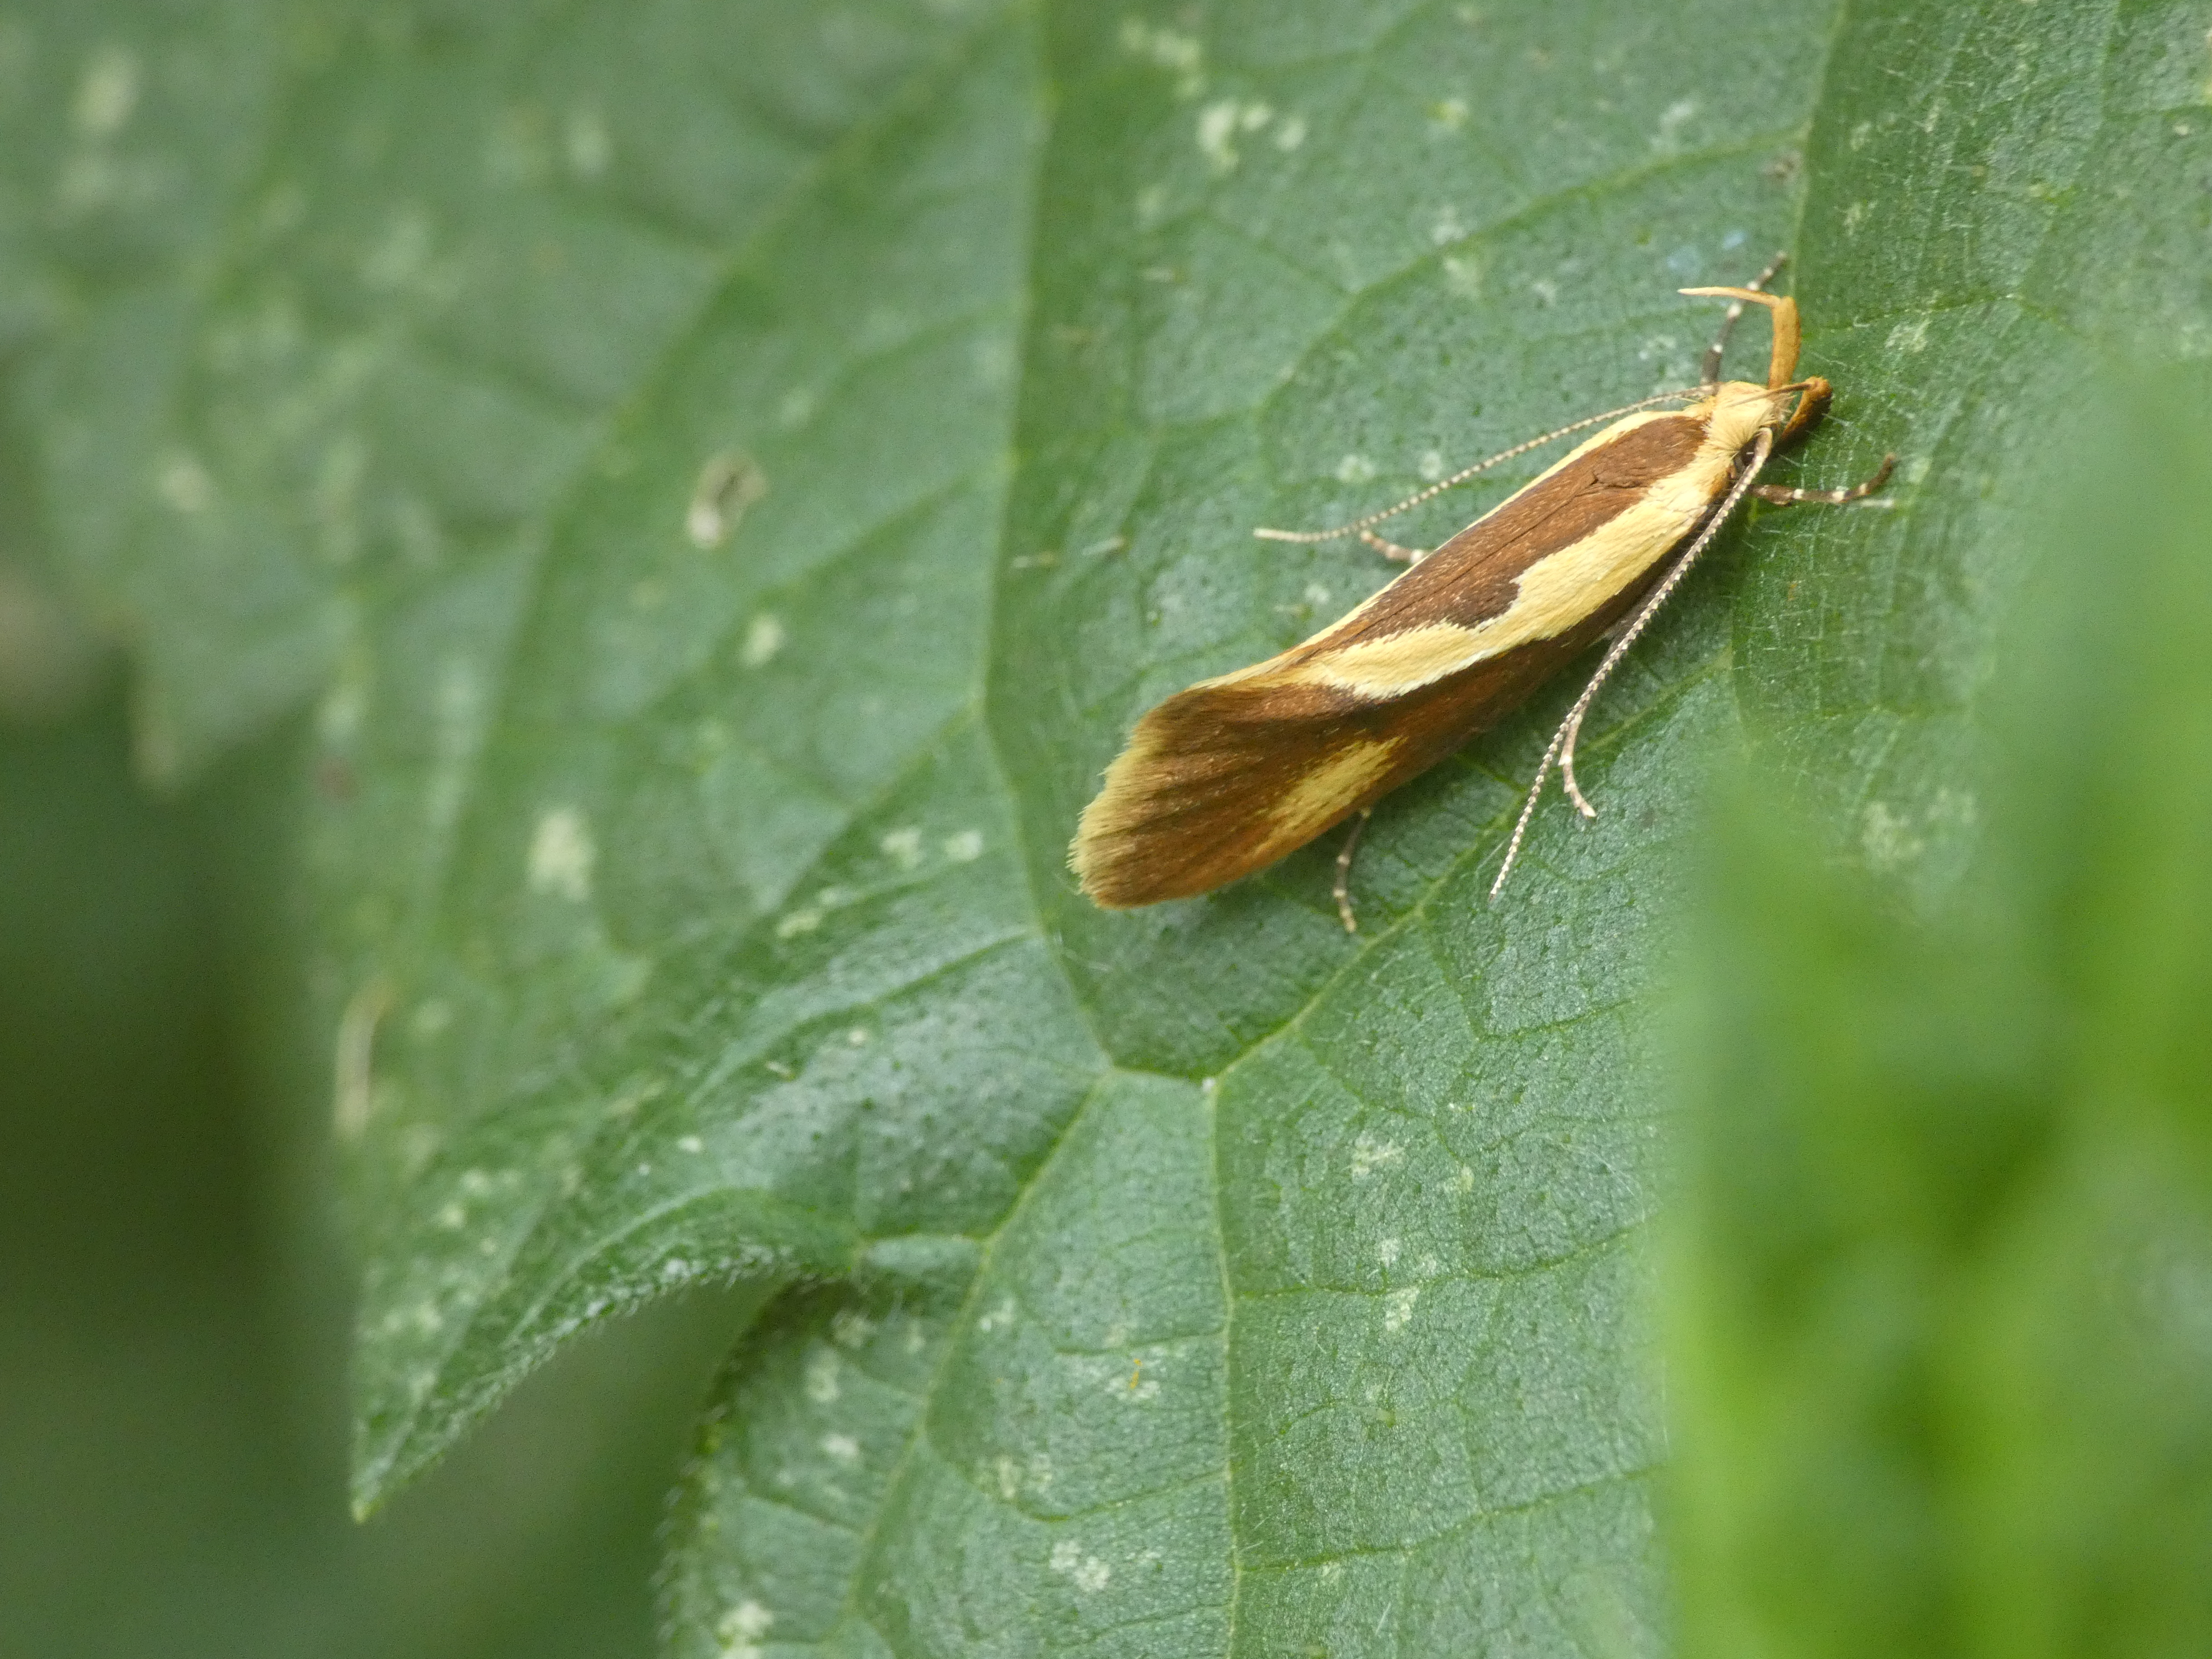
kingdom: Animalia
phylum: Arthropoda
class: Insecta
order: Lepidoptera
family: Oecophoridae
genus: Harpella
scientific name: Harpella forficella
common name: Kæmpeprydvinge
